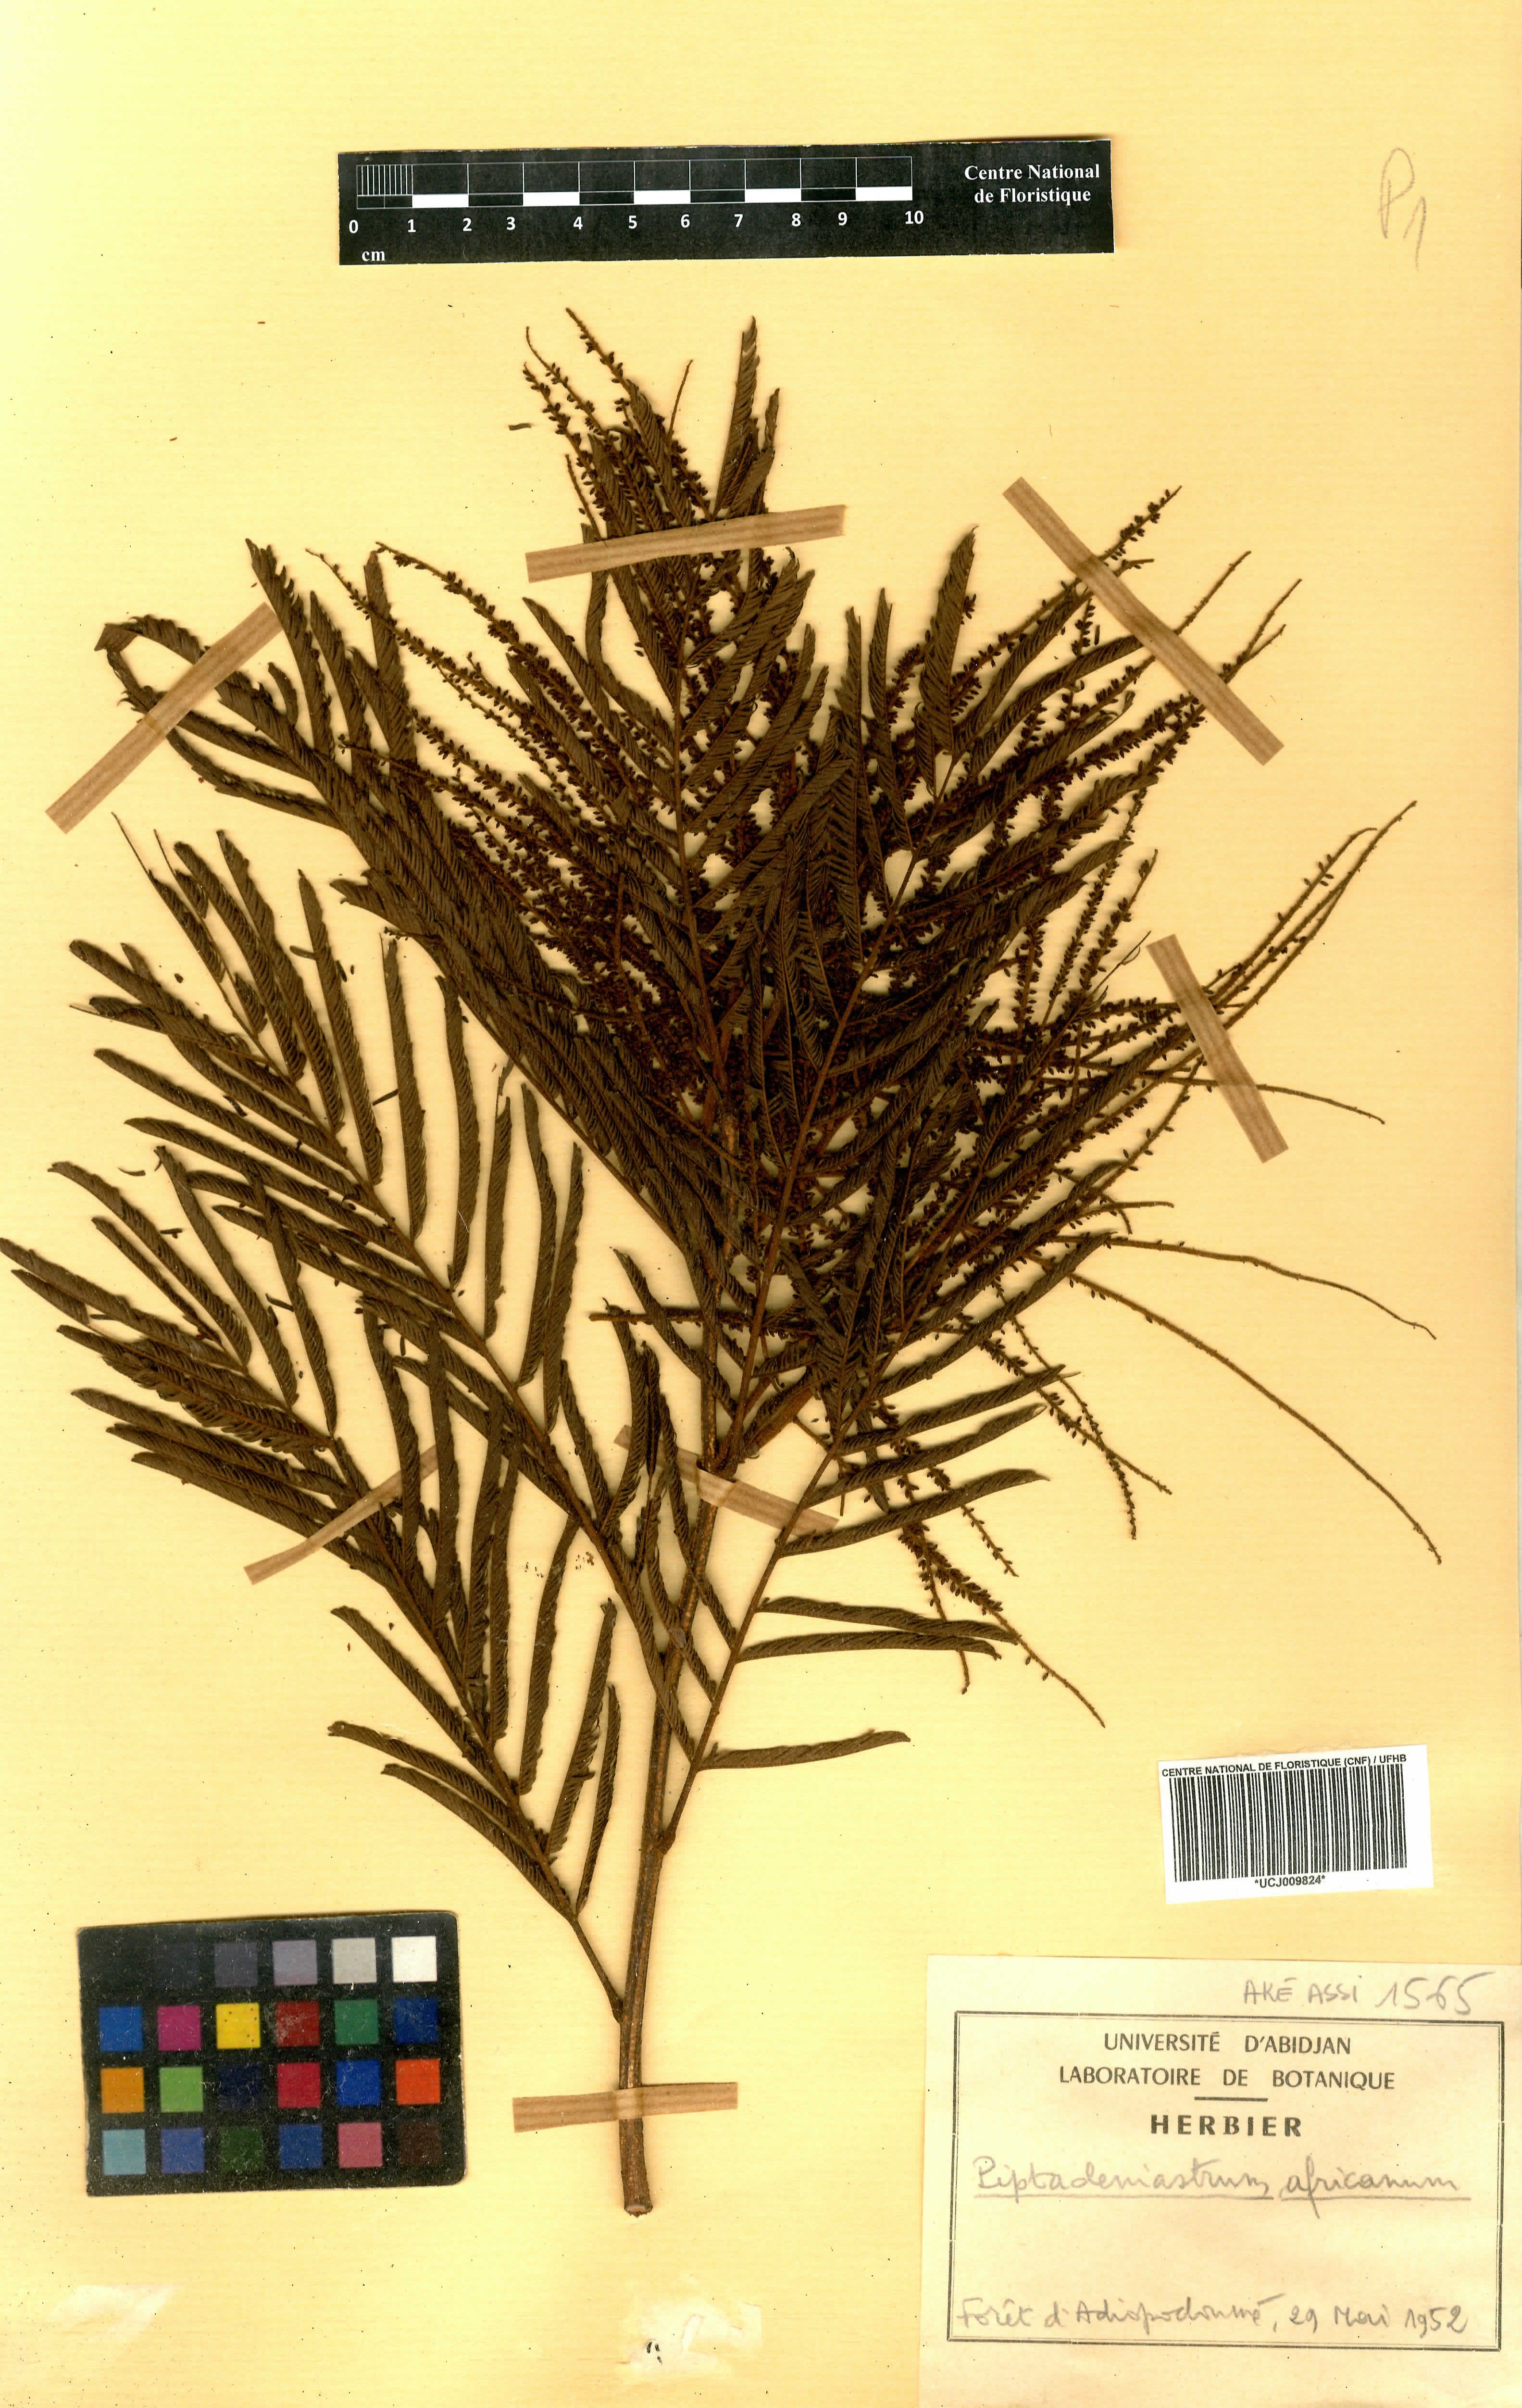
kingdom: Plantae
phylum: Tracheophyta
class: Magnoliopsida
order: Fabales
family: Fabaceae
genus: Piptadeniastrum
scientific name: Piptadeniastrum africanum
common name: African greenheart
